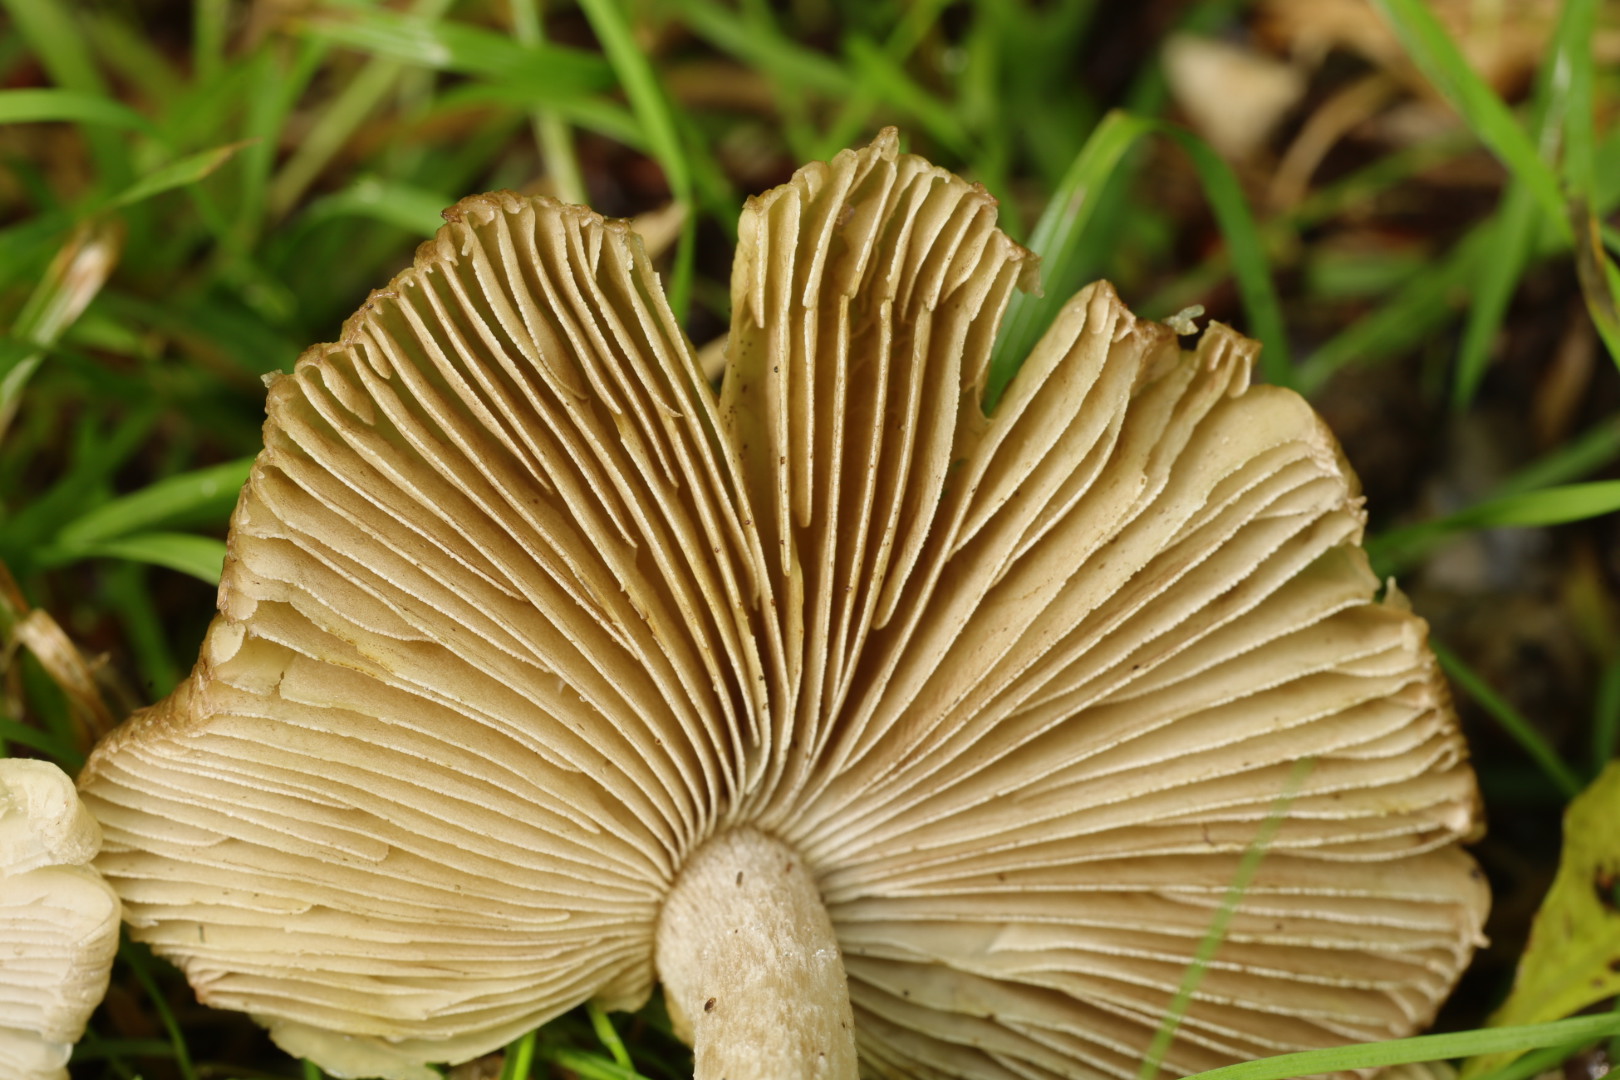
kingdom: Fungi
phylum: Basidiomycota
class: Agaricomycetes
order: Agaricales
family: Inocybaceae
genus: Inosperma
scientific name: Inosperma
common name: Trævlhat
